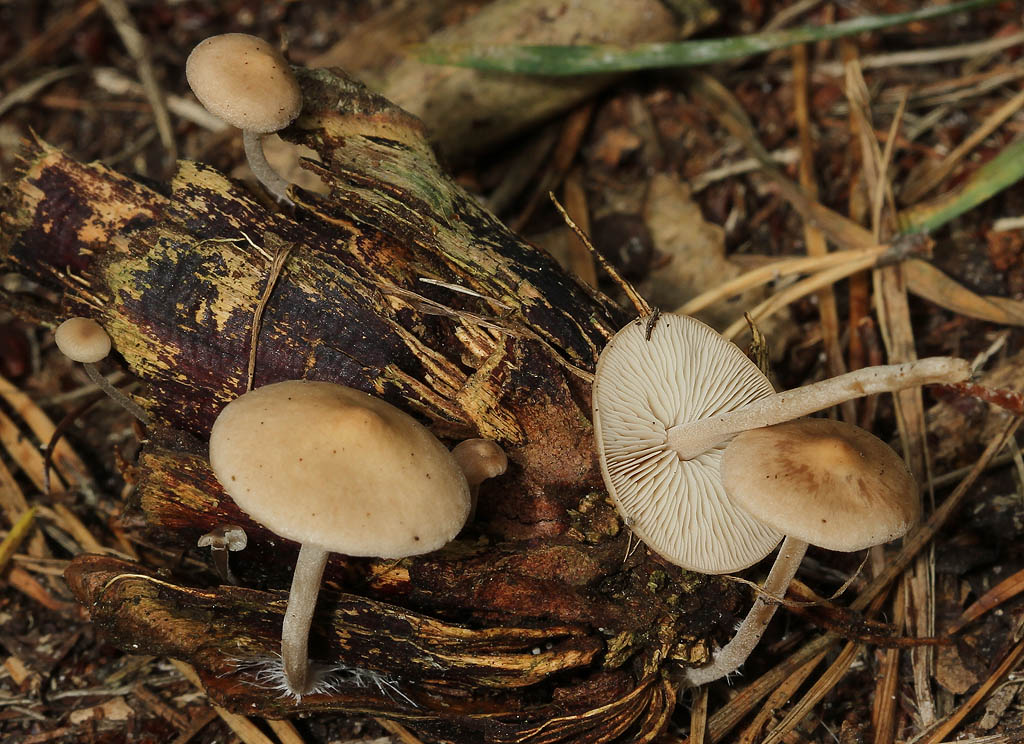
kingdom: Fungi
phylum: Basidiomycota
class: Agaricomycetes
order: Agaricales
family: Marasmiaceae
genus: Baeospora
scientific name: Baeospora myosura
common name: koglebruskhat
